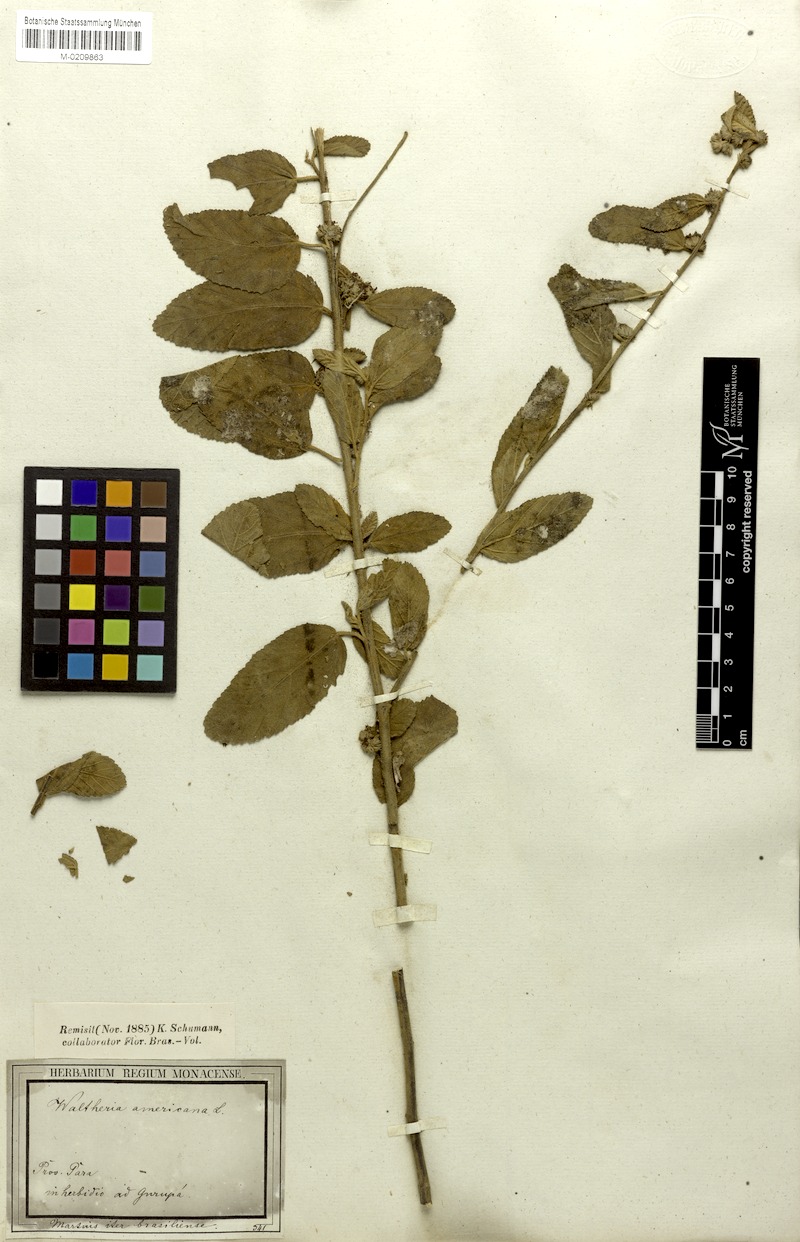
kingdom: Plantae
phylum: Tracheophyta
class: Magnoliopsida
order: Malvales
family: Malvaceae
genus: Waltheria
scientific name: Waltheria indica
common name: Leather-coat
